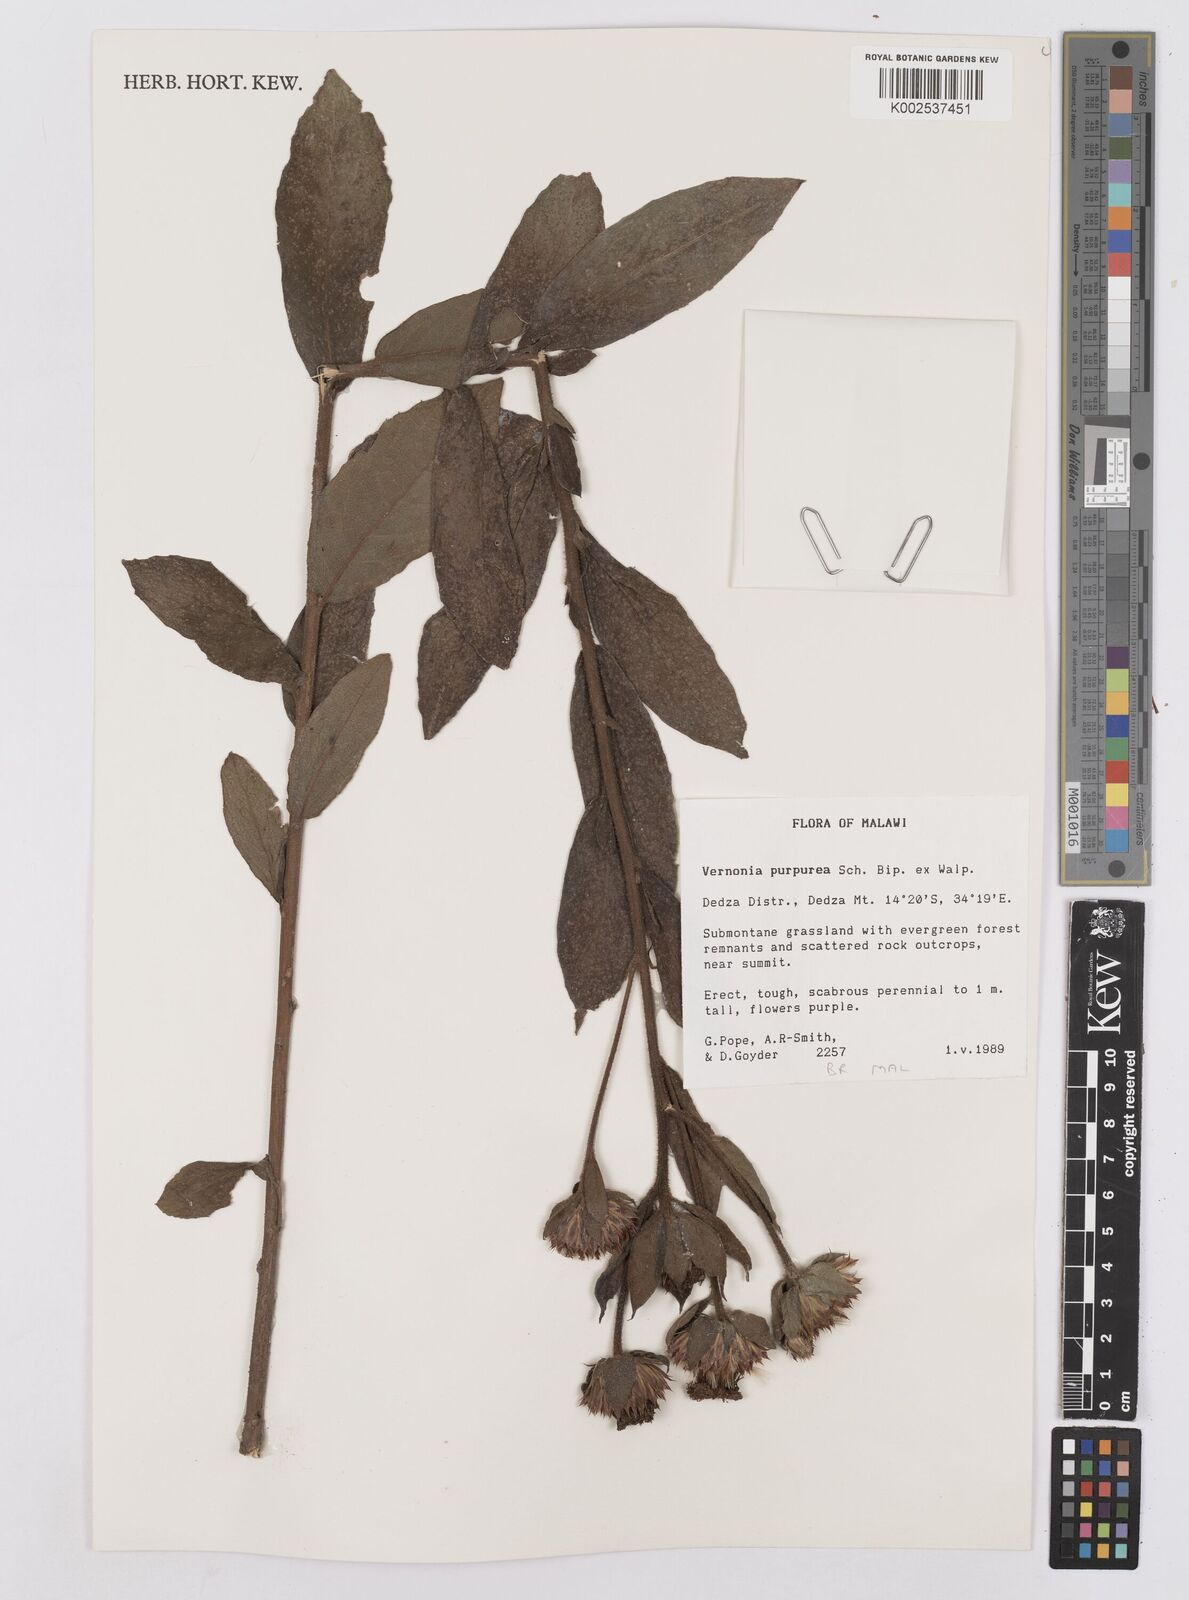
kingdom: Plantae
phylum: Tracheophyta
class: Magnoliopsida
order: Asterales
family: Asteraceae
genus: Nothovernonia
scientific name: Nothovernonia purpurea
